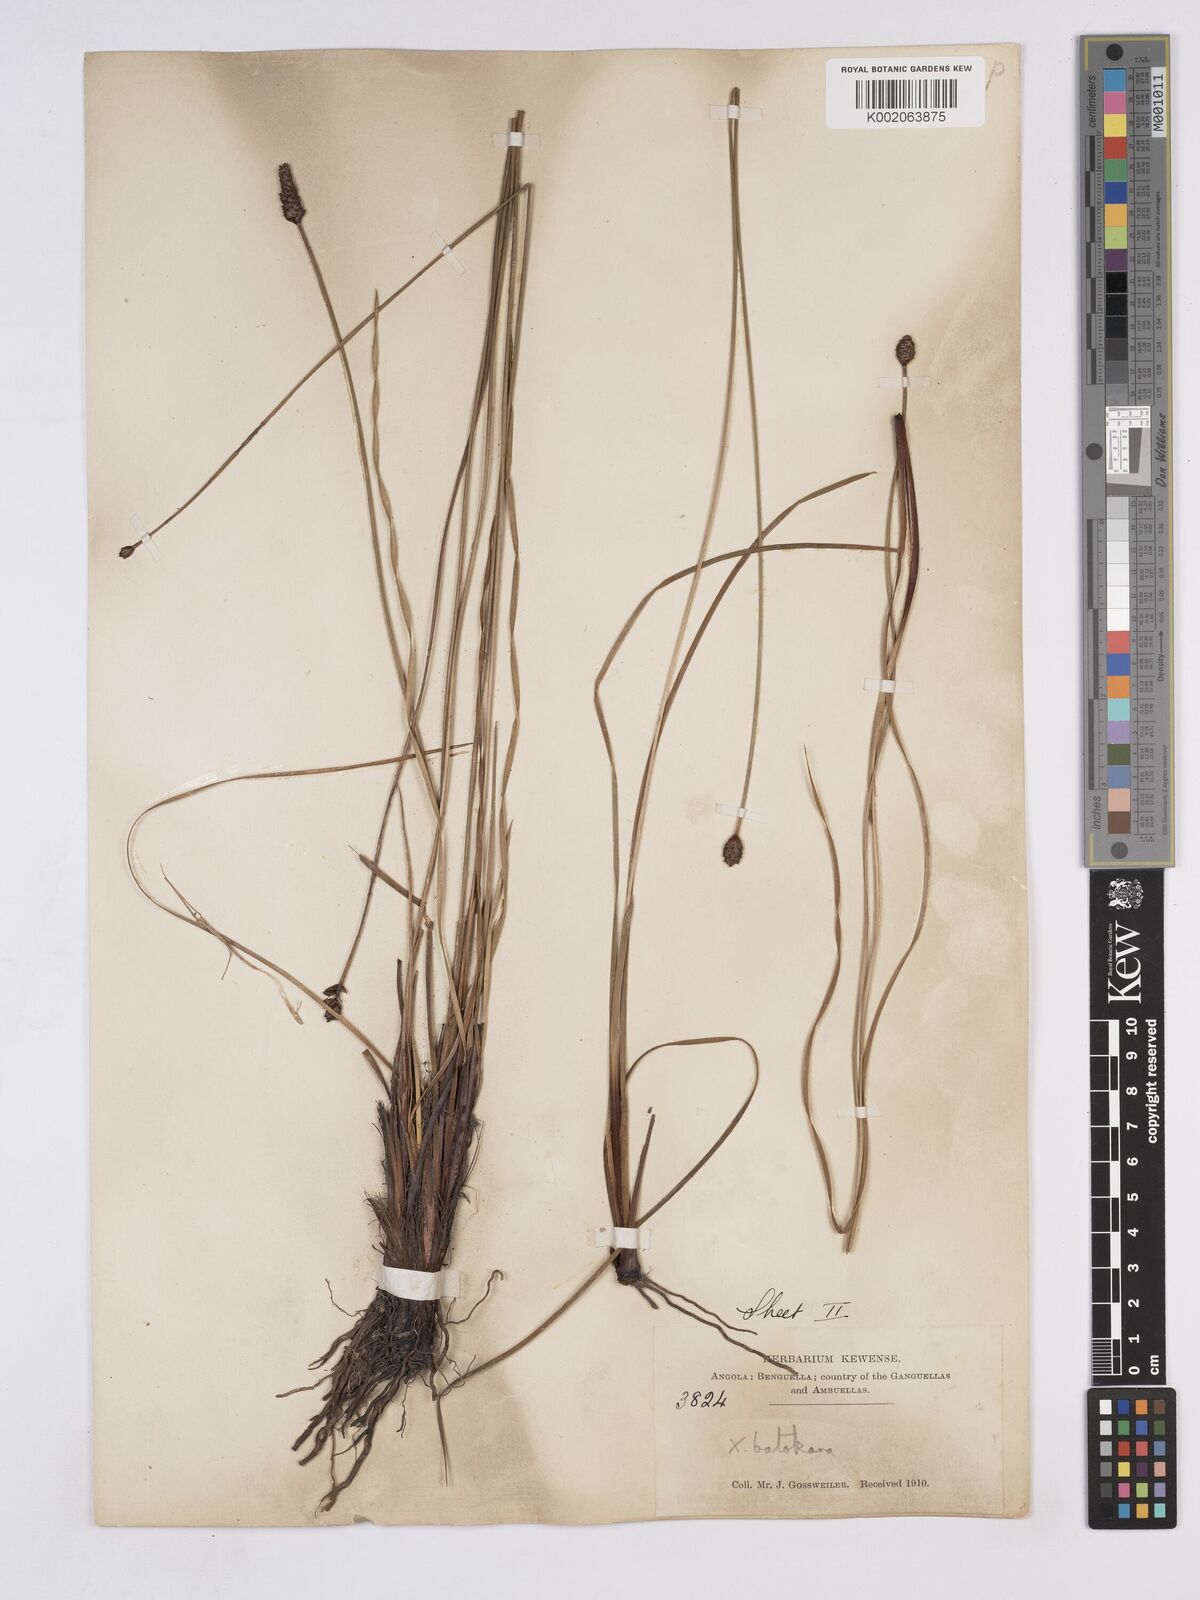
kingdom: Plantae
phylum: Tracheophyta
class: Liliopsida
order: Poales
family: Xyridaceae
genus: Xyris
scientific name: Xyris congensis
